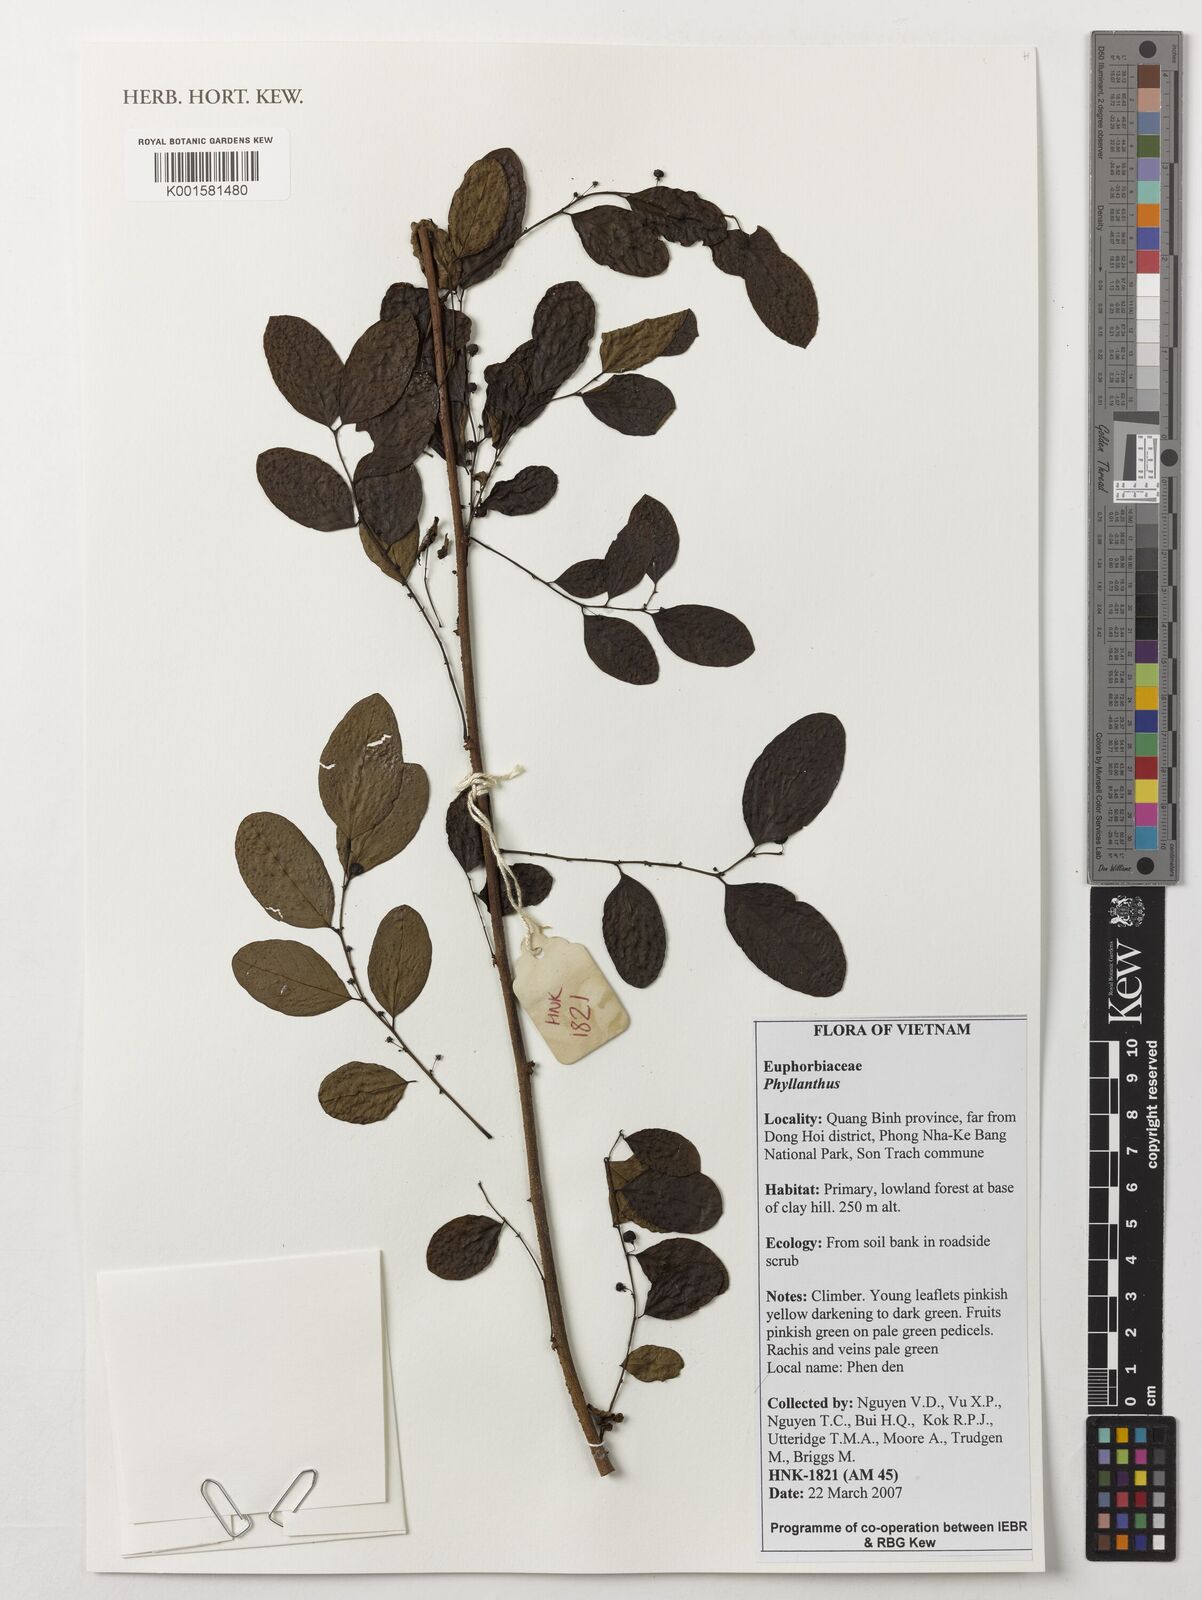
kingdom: Plantae
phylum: Tracheophyta
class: Magnoliopsida
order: Malpighiales
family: Phyllanthaceae
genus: Phyllanthus
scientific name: Phyllanthus
